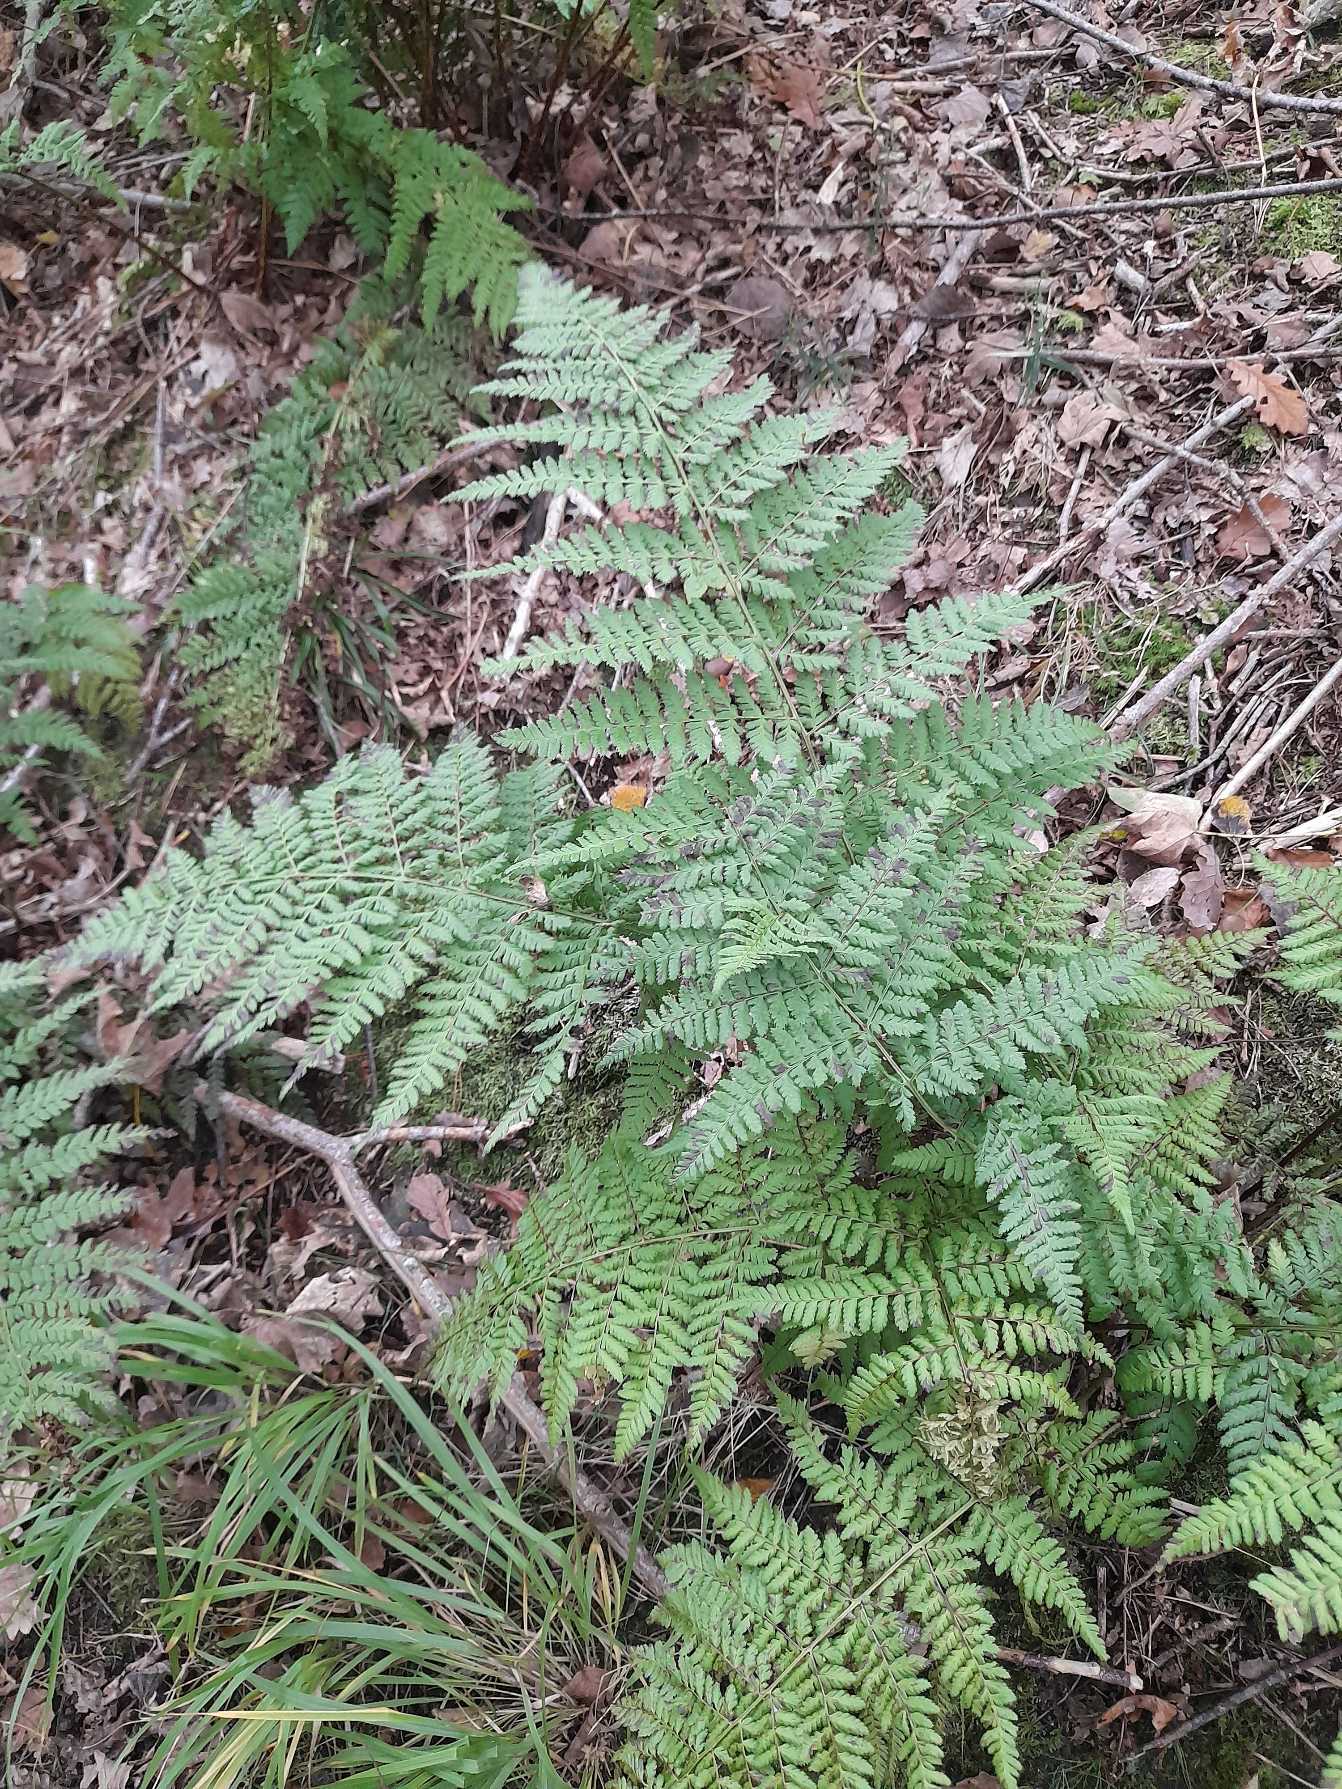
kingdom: Plantae
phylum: Tracheophyta
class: Polypodiopsida
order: Polypodiales
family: Dryopteridaceae
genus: Dryopteris
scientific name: Dryopteris dilatata
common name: Bredbladet mangeløv
